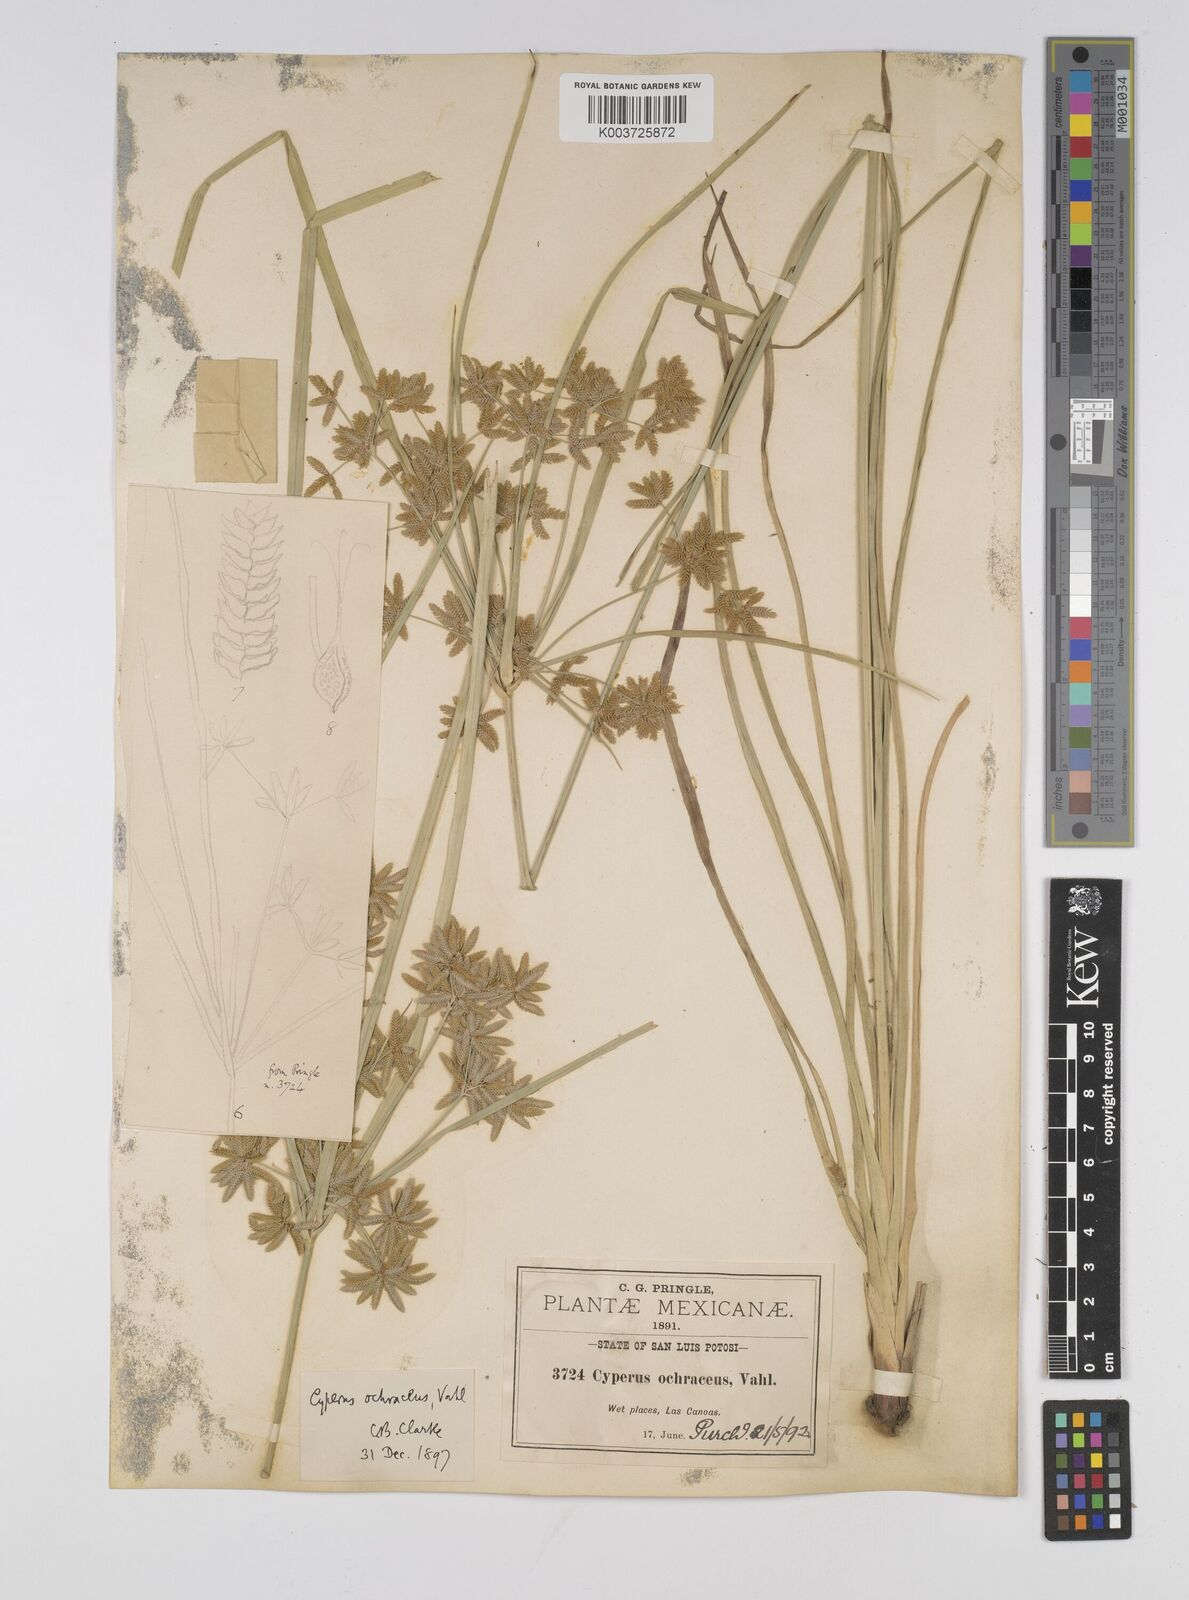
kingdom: Plantae
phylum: Tracheophyta
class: Liliopsida
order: Poales
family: Cyperaceae
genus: Cyperus
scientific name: Cyperus ochraceus
